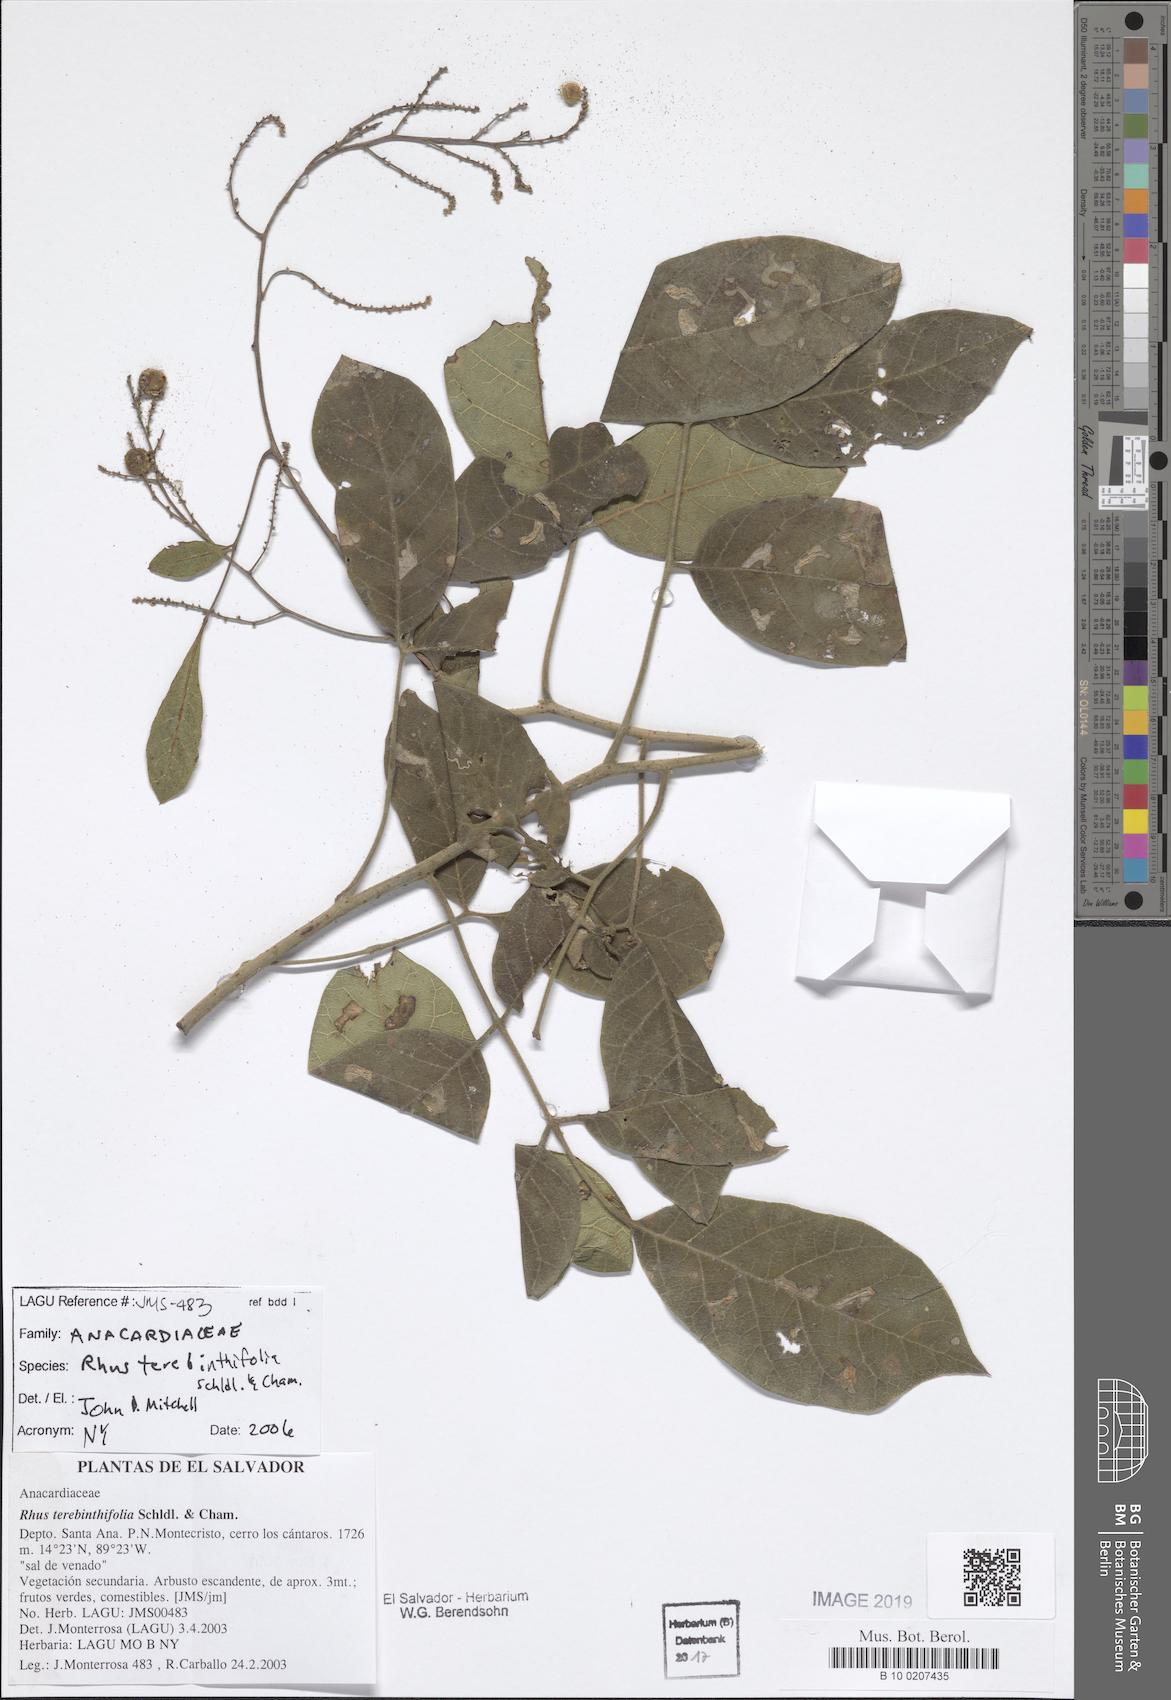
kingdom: Plantae
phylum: Tracheophyta
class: Magnoliopsida
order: Sapindales
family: Anacardiaceae
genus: Rhus
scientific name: Rhus terebinthifolia
